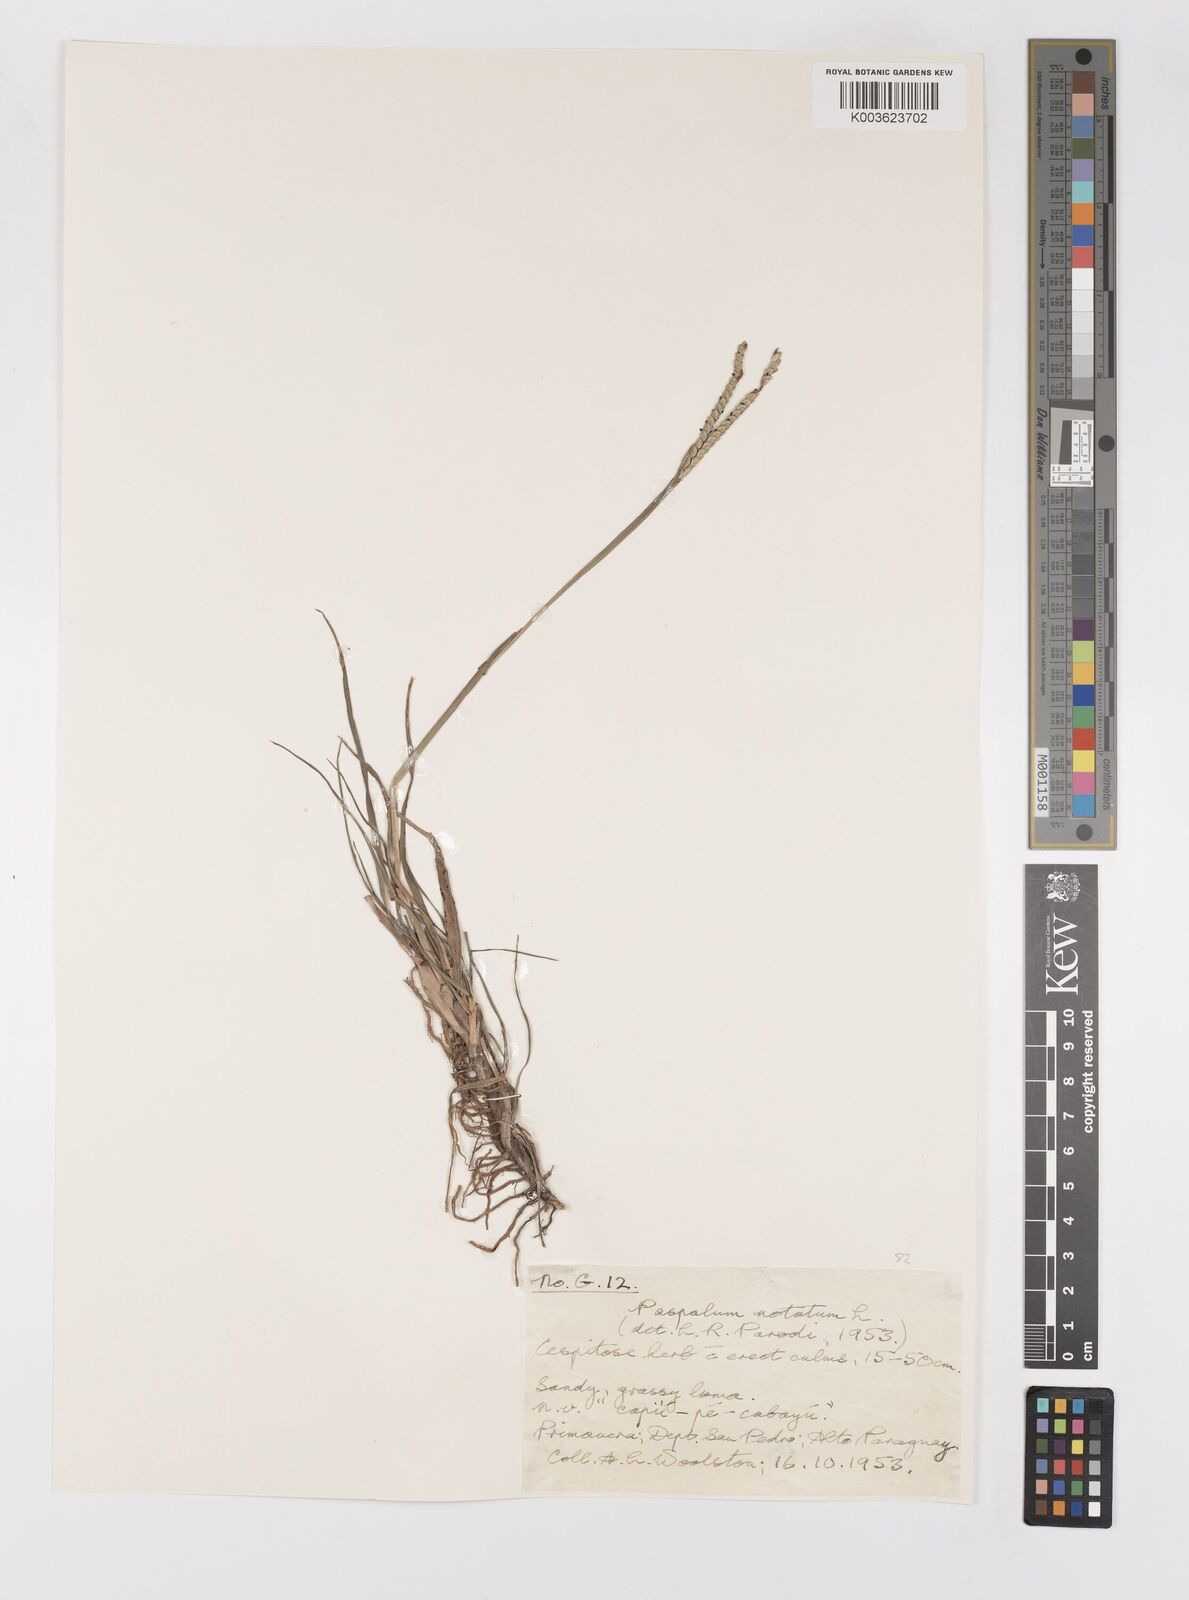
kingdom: Plantae
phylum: Tracheophyta
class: Liliopsida
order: Poales
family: Poaceae
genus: Paspalum
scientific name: Paspalum notatum
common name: Bahiagrass
